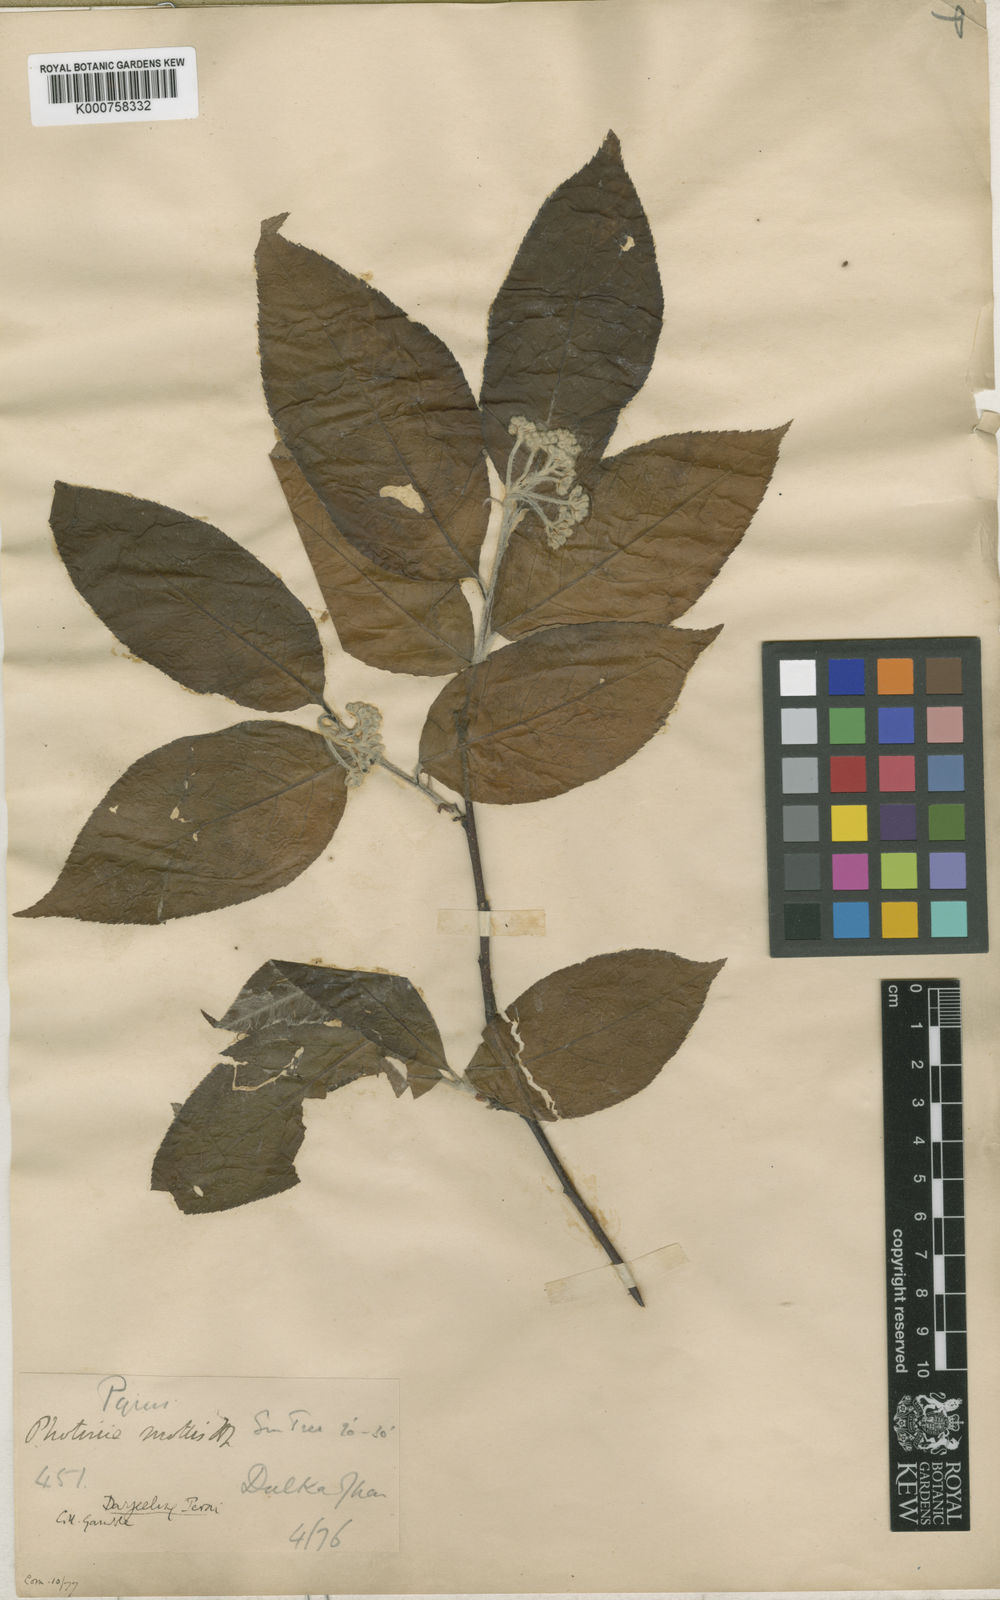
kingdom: Plantae
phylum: Tracheophyta
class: Magnoliopsida
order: Rosales
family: Rosaceae
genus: Photinia
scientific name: Photinia
